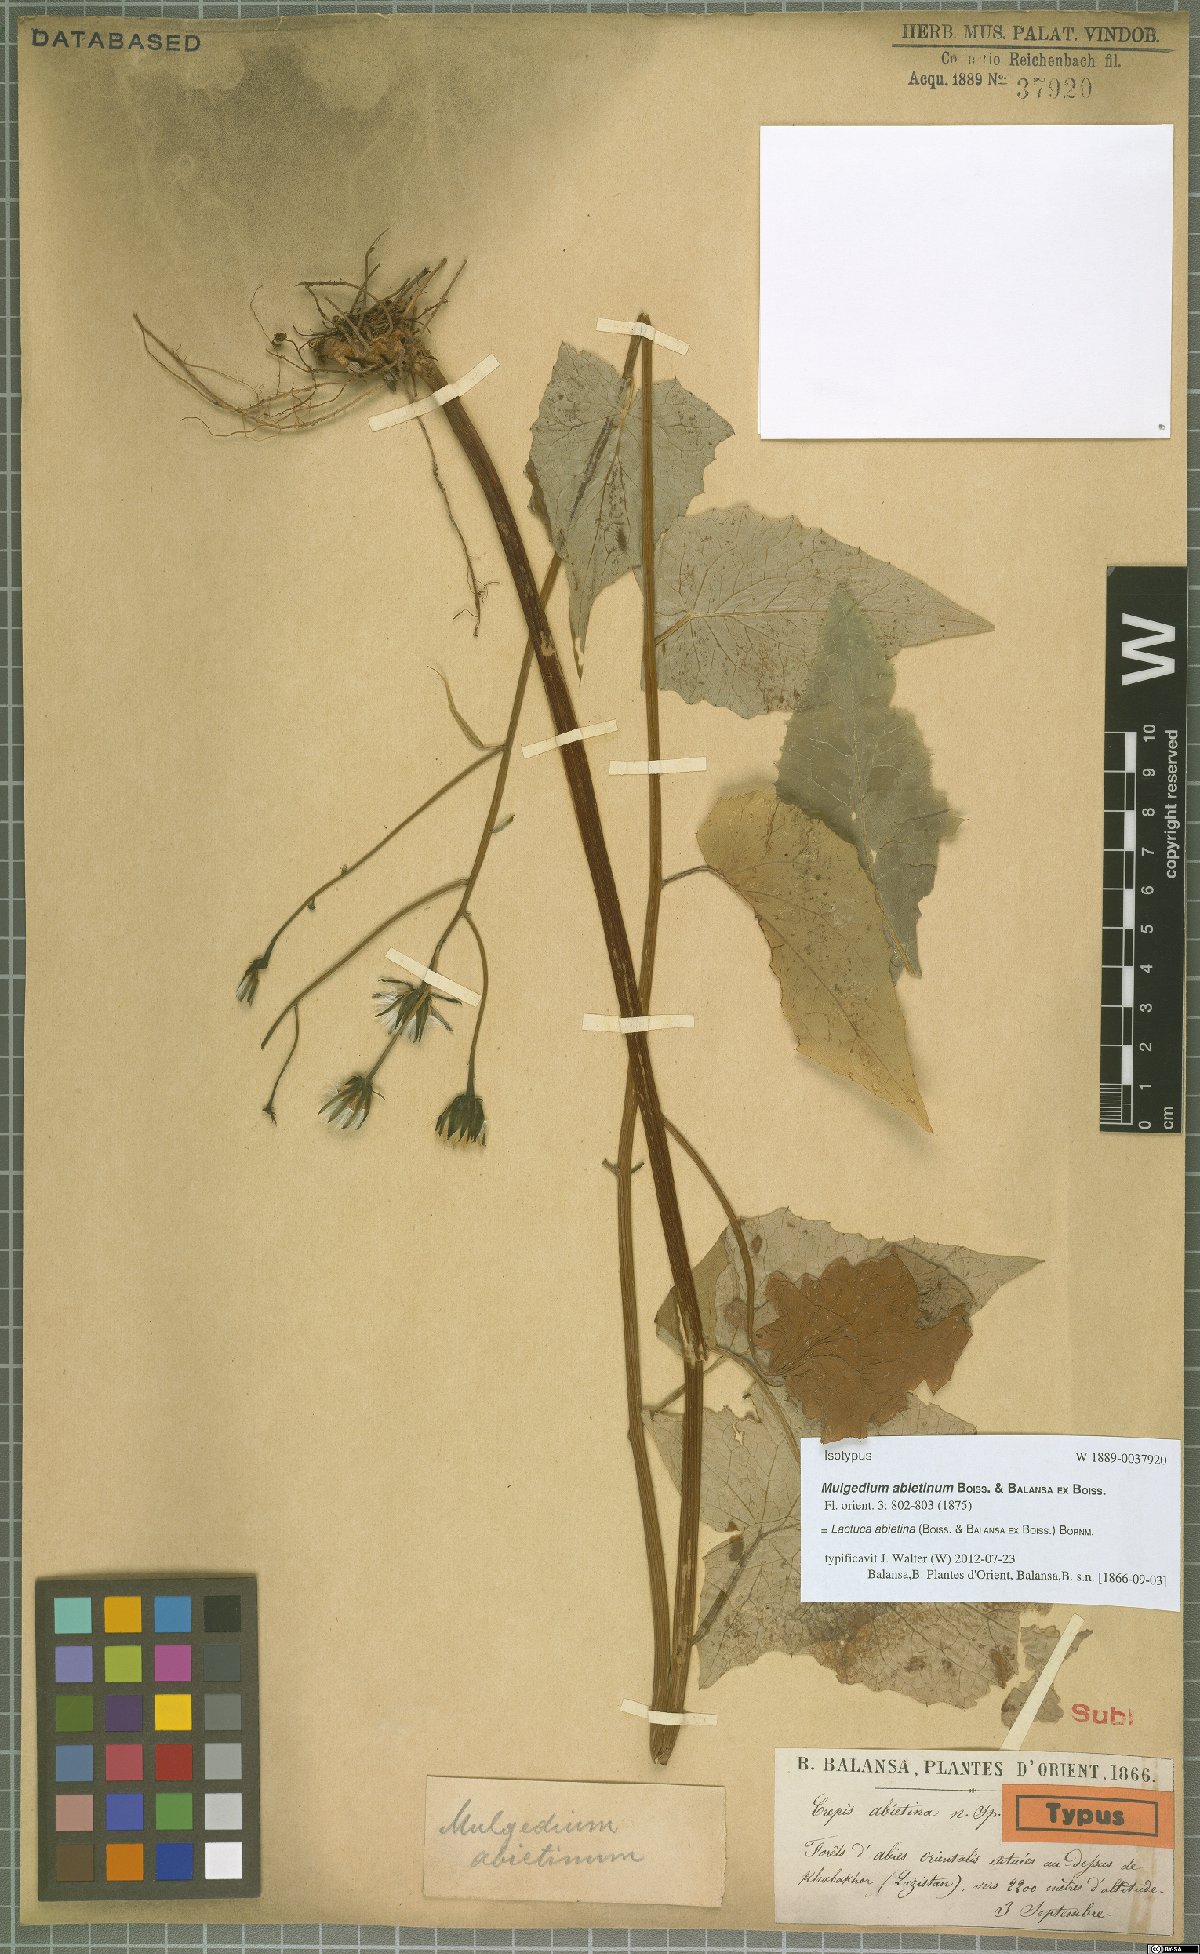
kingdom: Plantae
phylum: Tracheophyta
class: Magnoliopsida
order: Asterales
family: Asteraceae
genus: Caucasoseris
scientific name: Caucasoseris abietina
